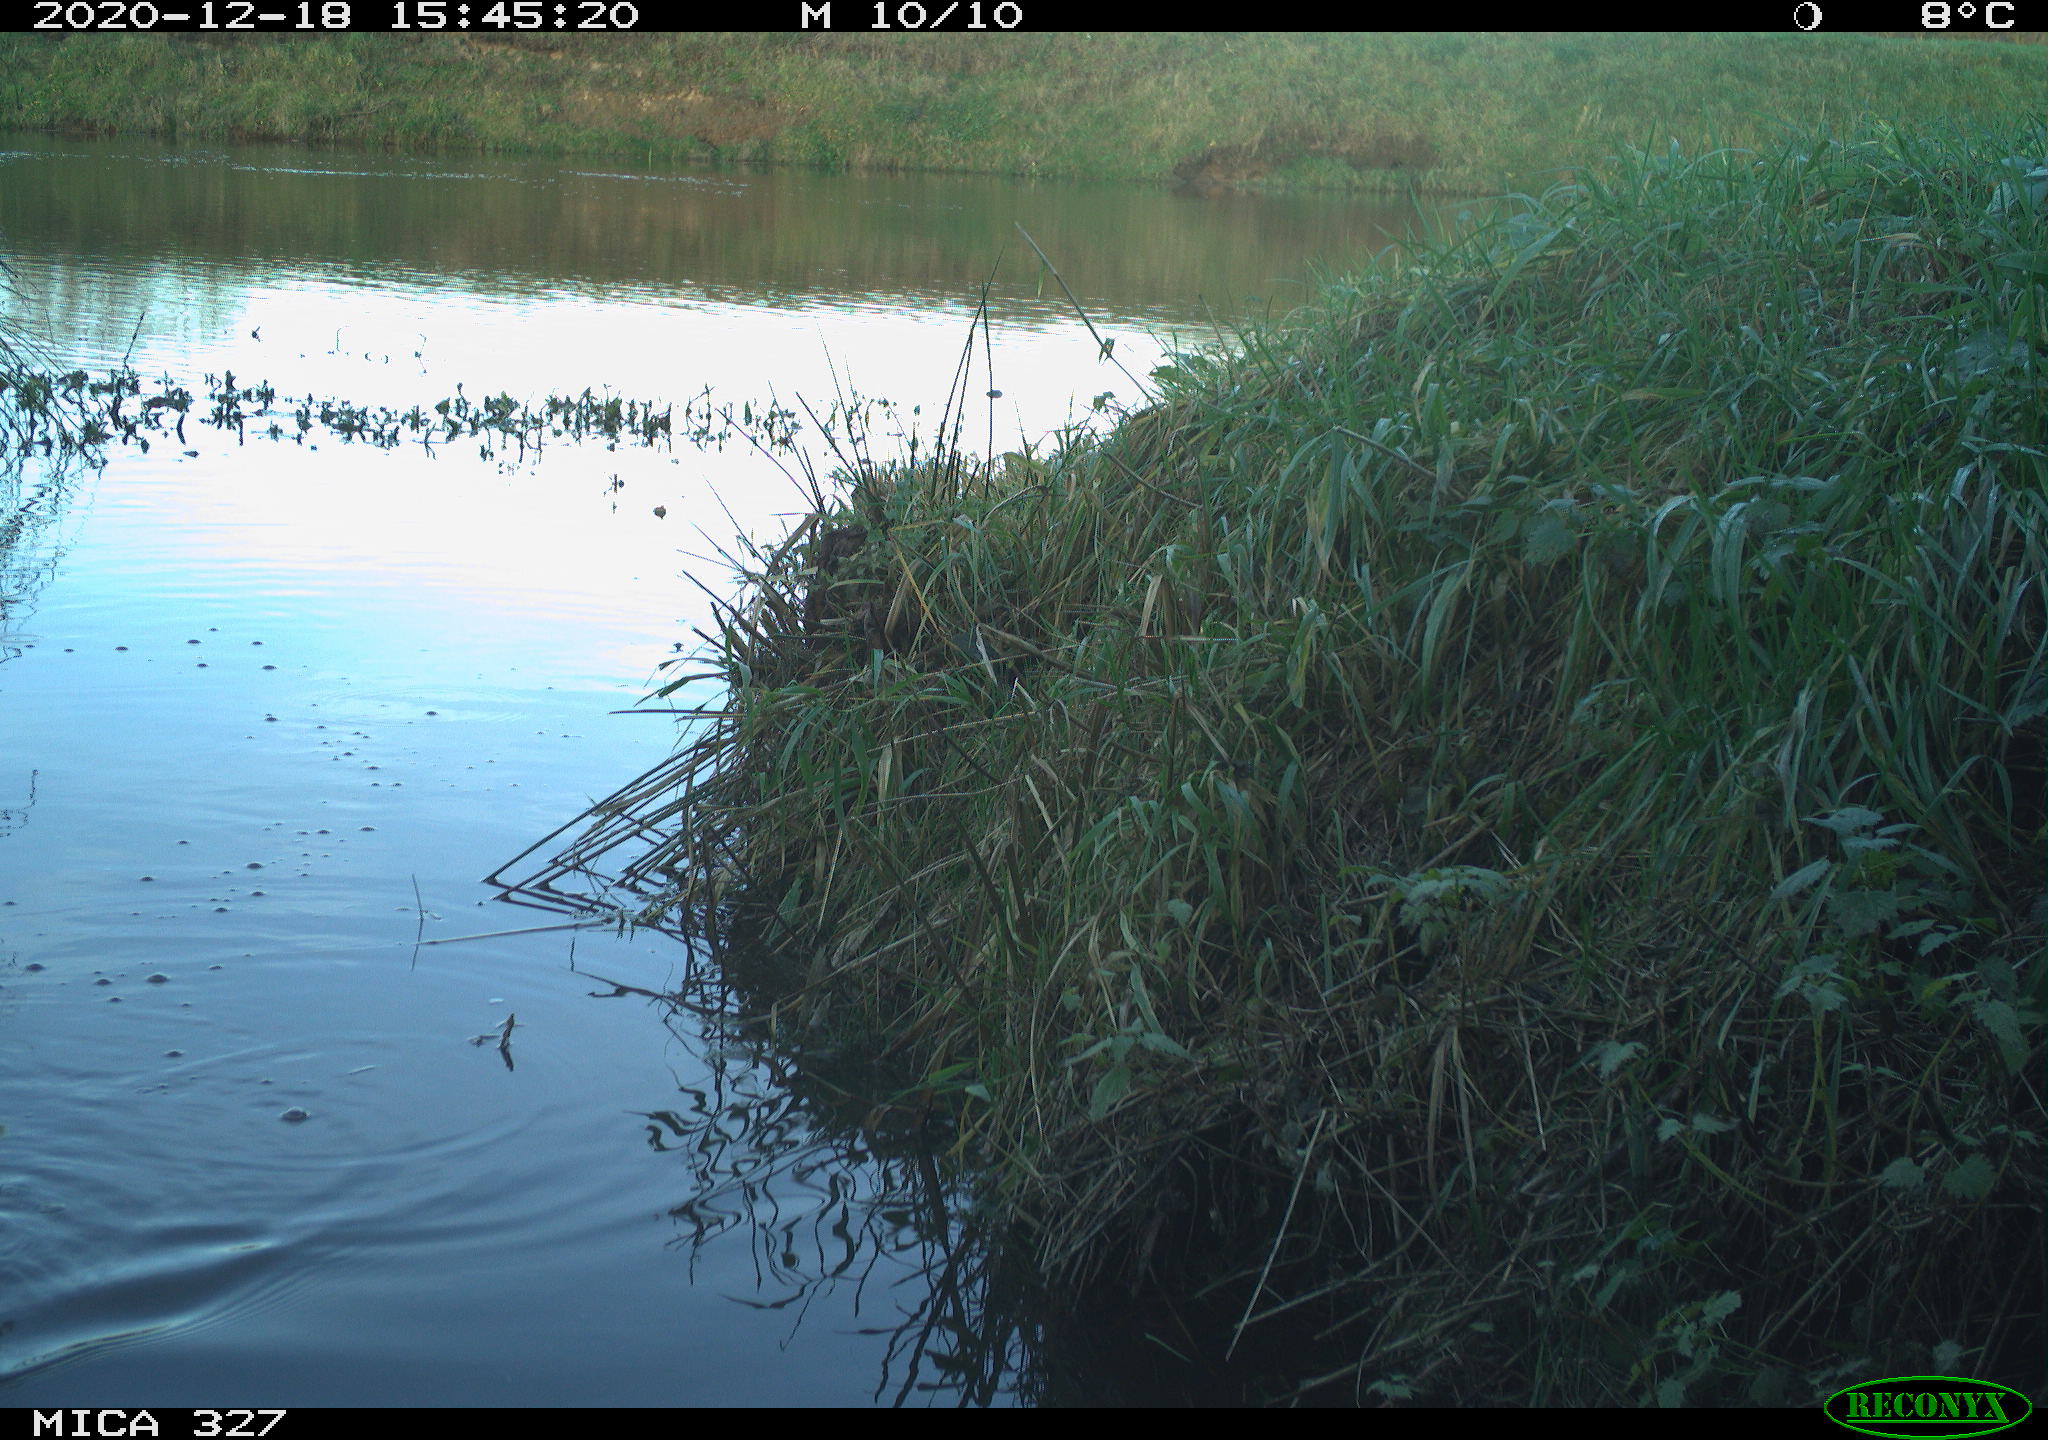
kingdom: Animalia
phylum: Chordata
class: Aves
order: Pelecaniformes
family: Ardeidae
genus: Ardea
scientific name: Ardea alba
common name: Great egret
